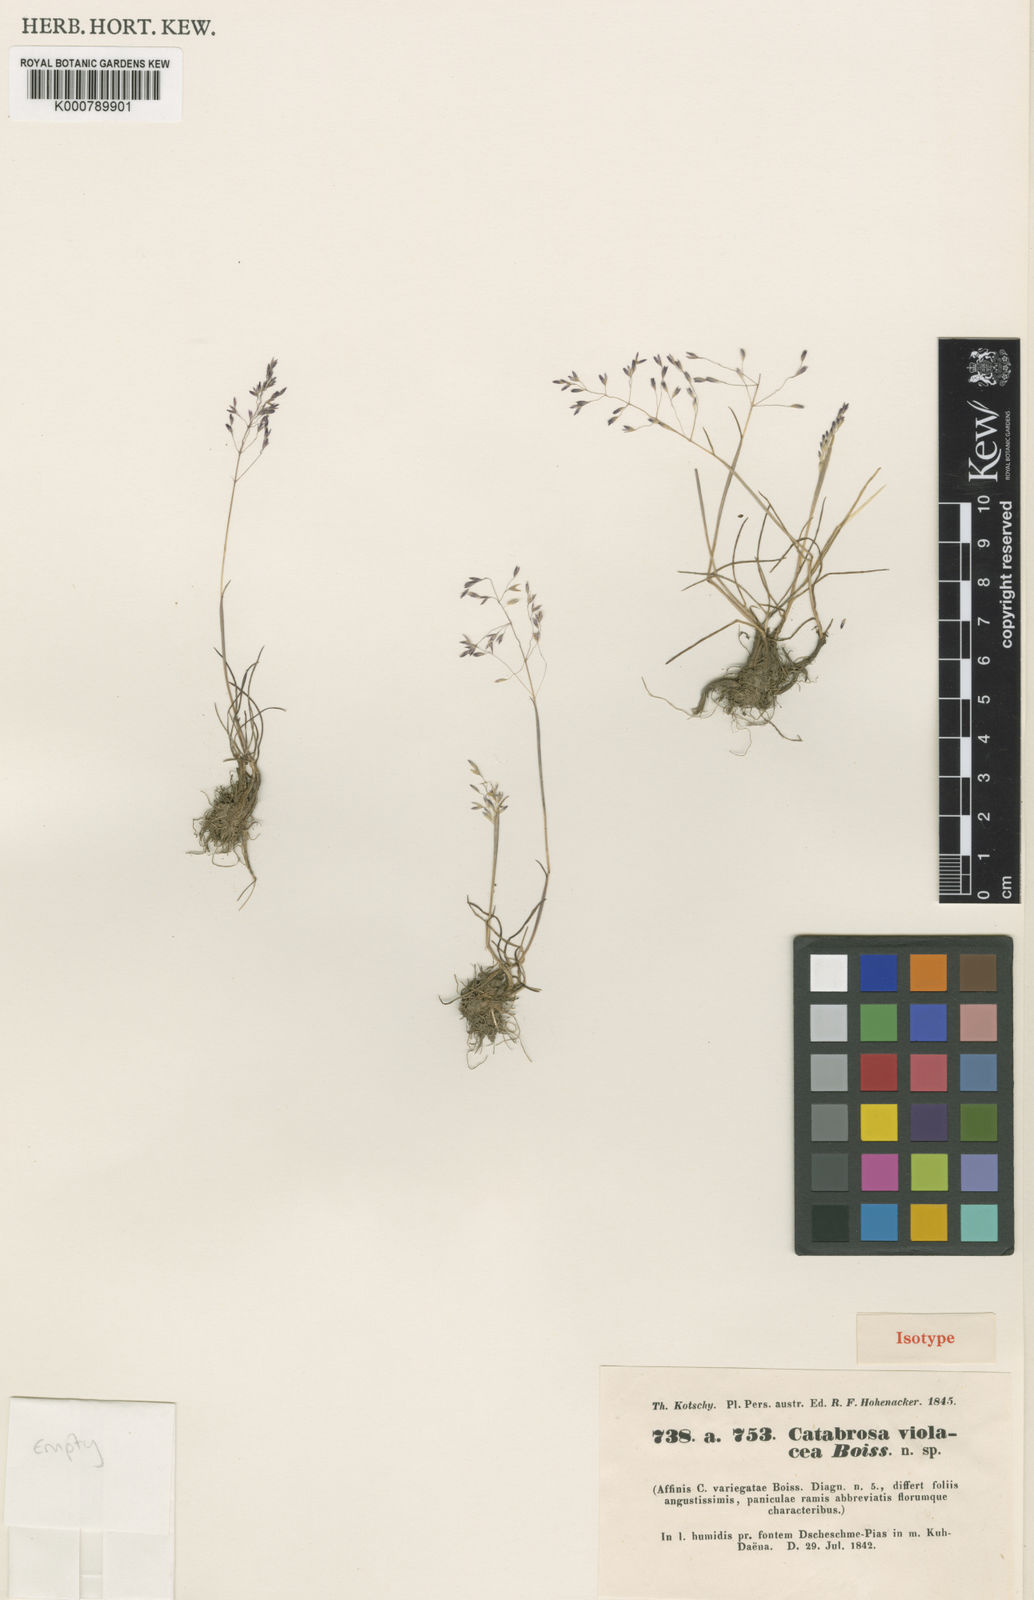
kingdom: Plantae
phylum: Tracheophyta
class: Liliopsida
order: Poales
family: Poaceae
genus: Catabrosella
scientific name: Catabrosella violacea
